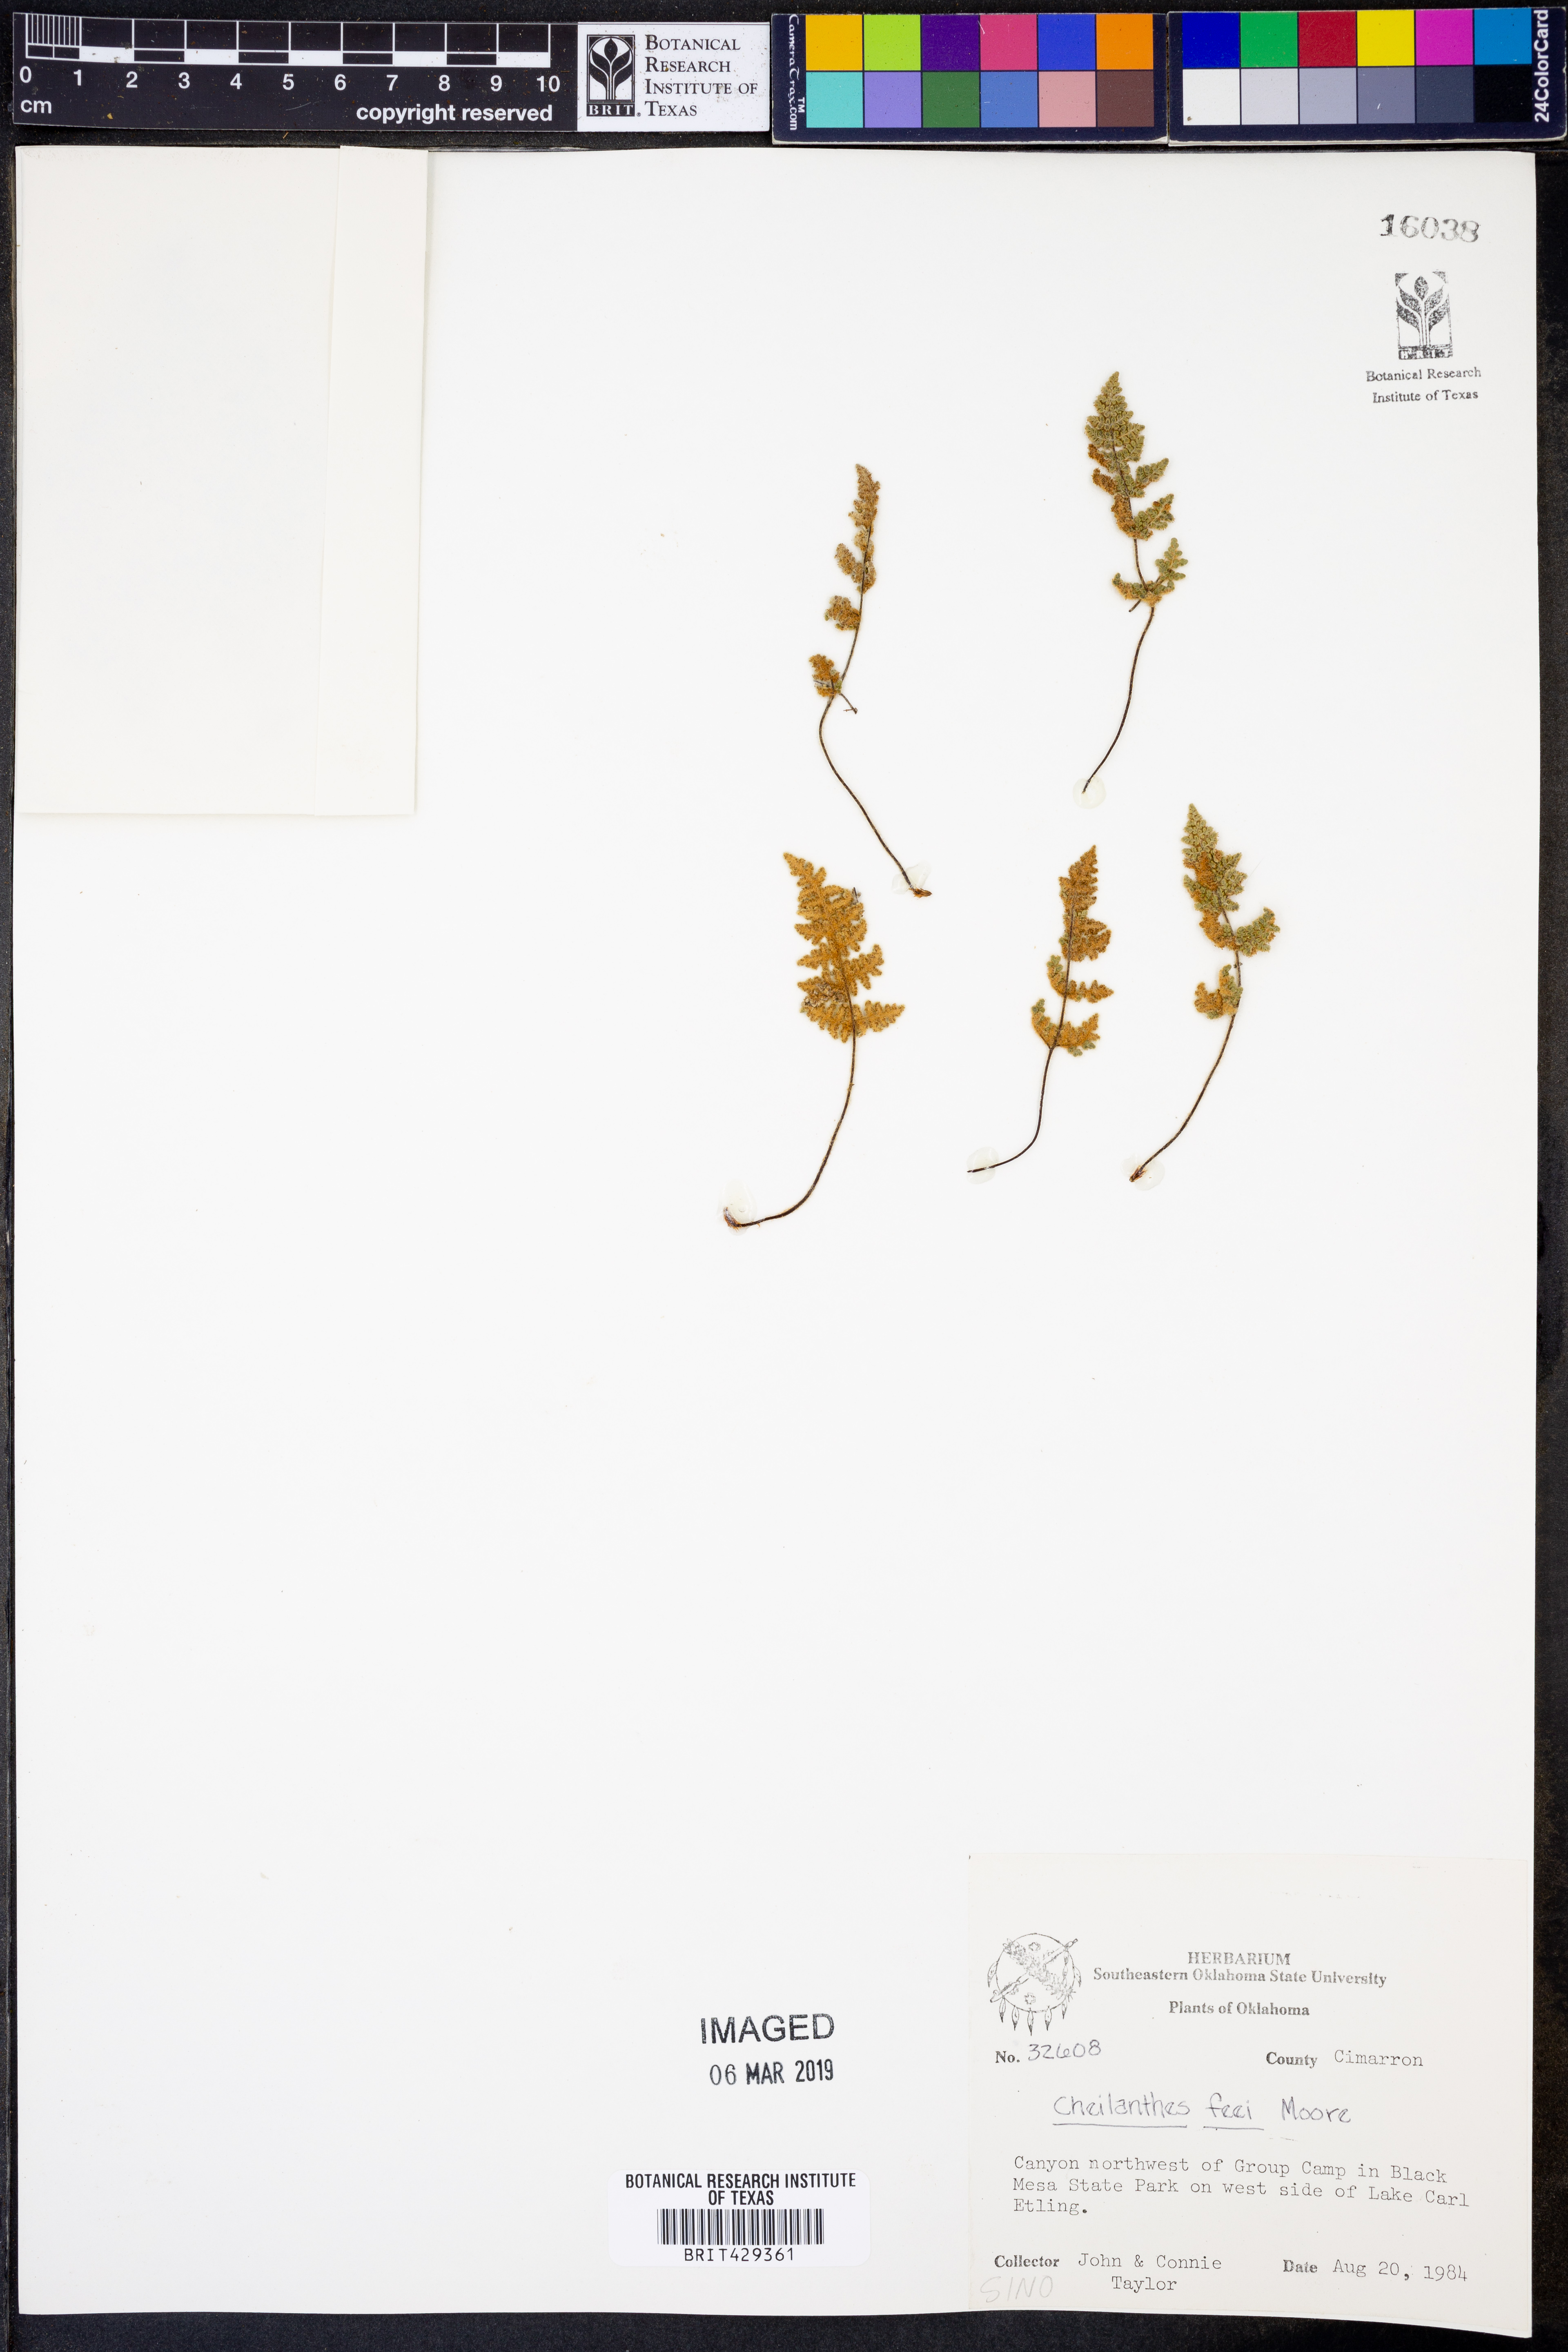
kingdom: Plantae
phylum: Tracheophyta
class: Polypodiopsida
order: Polypodiales
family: Pteridaceae
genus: Myriopteris
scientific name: Myriopteris gracilis
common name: Fee's lip fern
